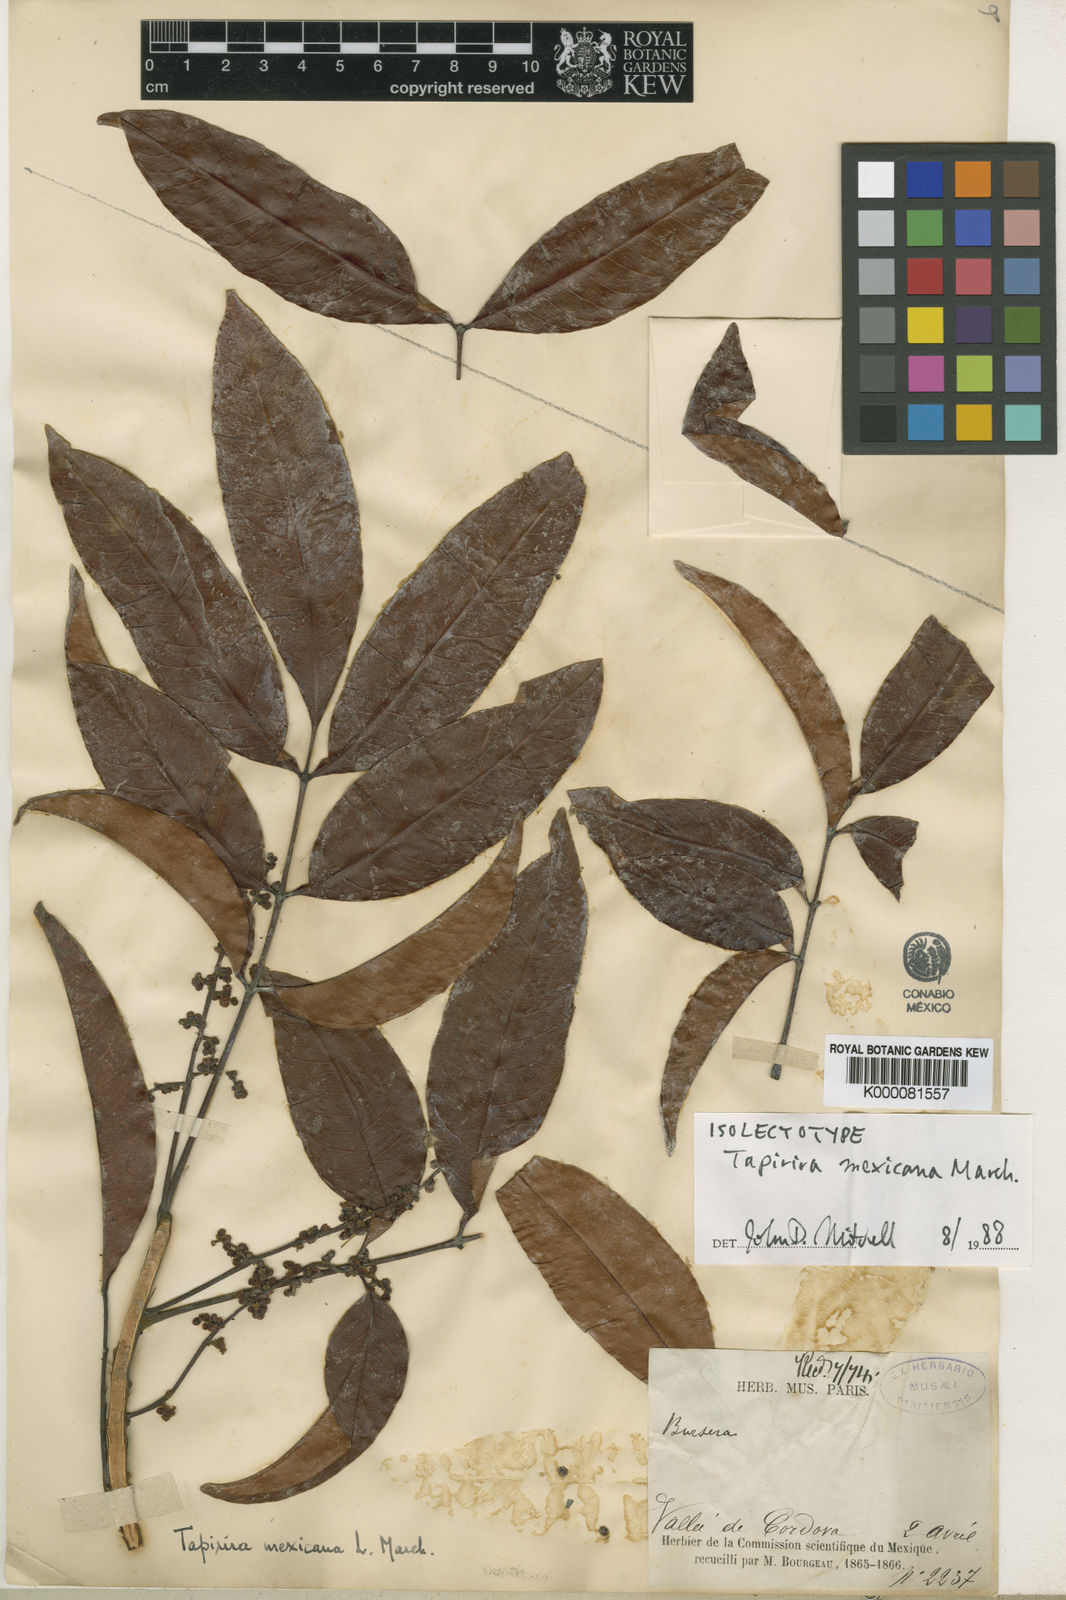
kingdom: Plantae
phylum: Tracheophyta
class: Magnoliopsida
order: Sapindales
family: Anacardiaceae
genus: Tapirira
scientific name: Tapirira mexicana
